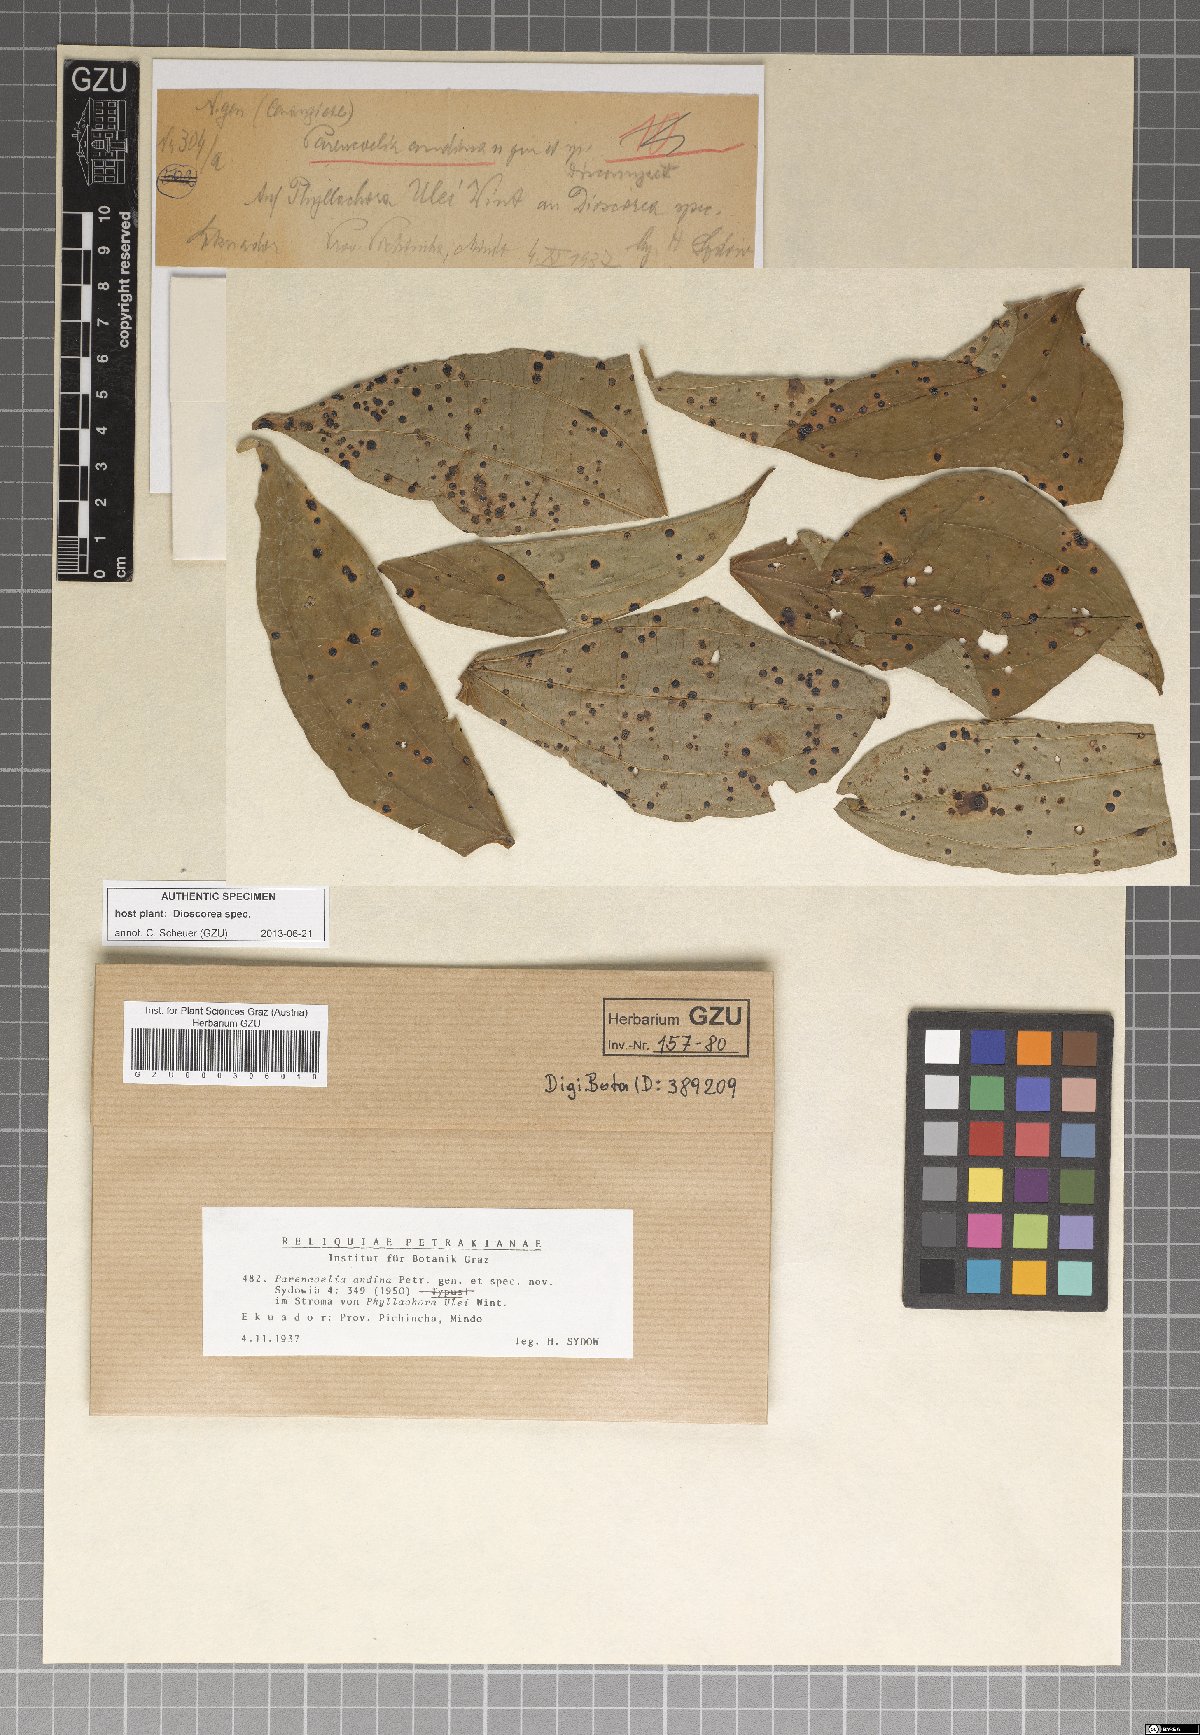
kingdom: Fungi
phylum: Ascomycota
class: Leotiomycetes
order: Helotiales
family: Helotiaceae
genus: Parencoelia
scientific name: Parencoelia andina
